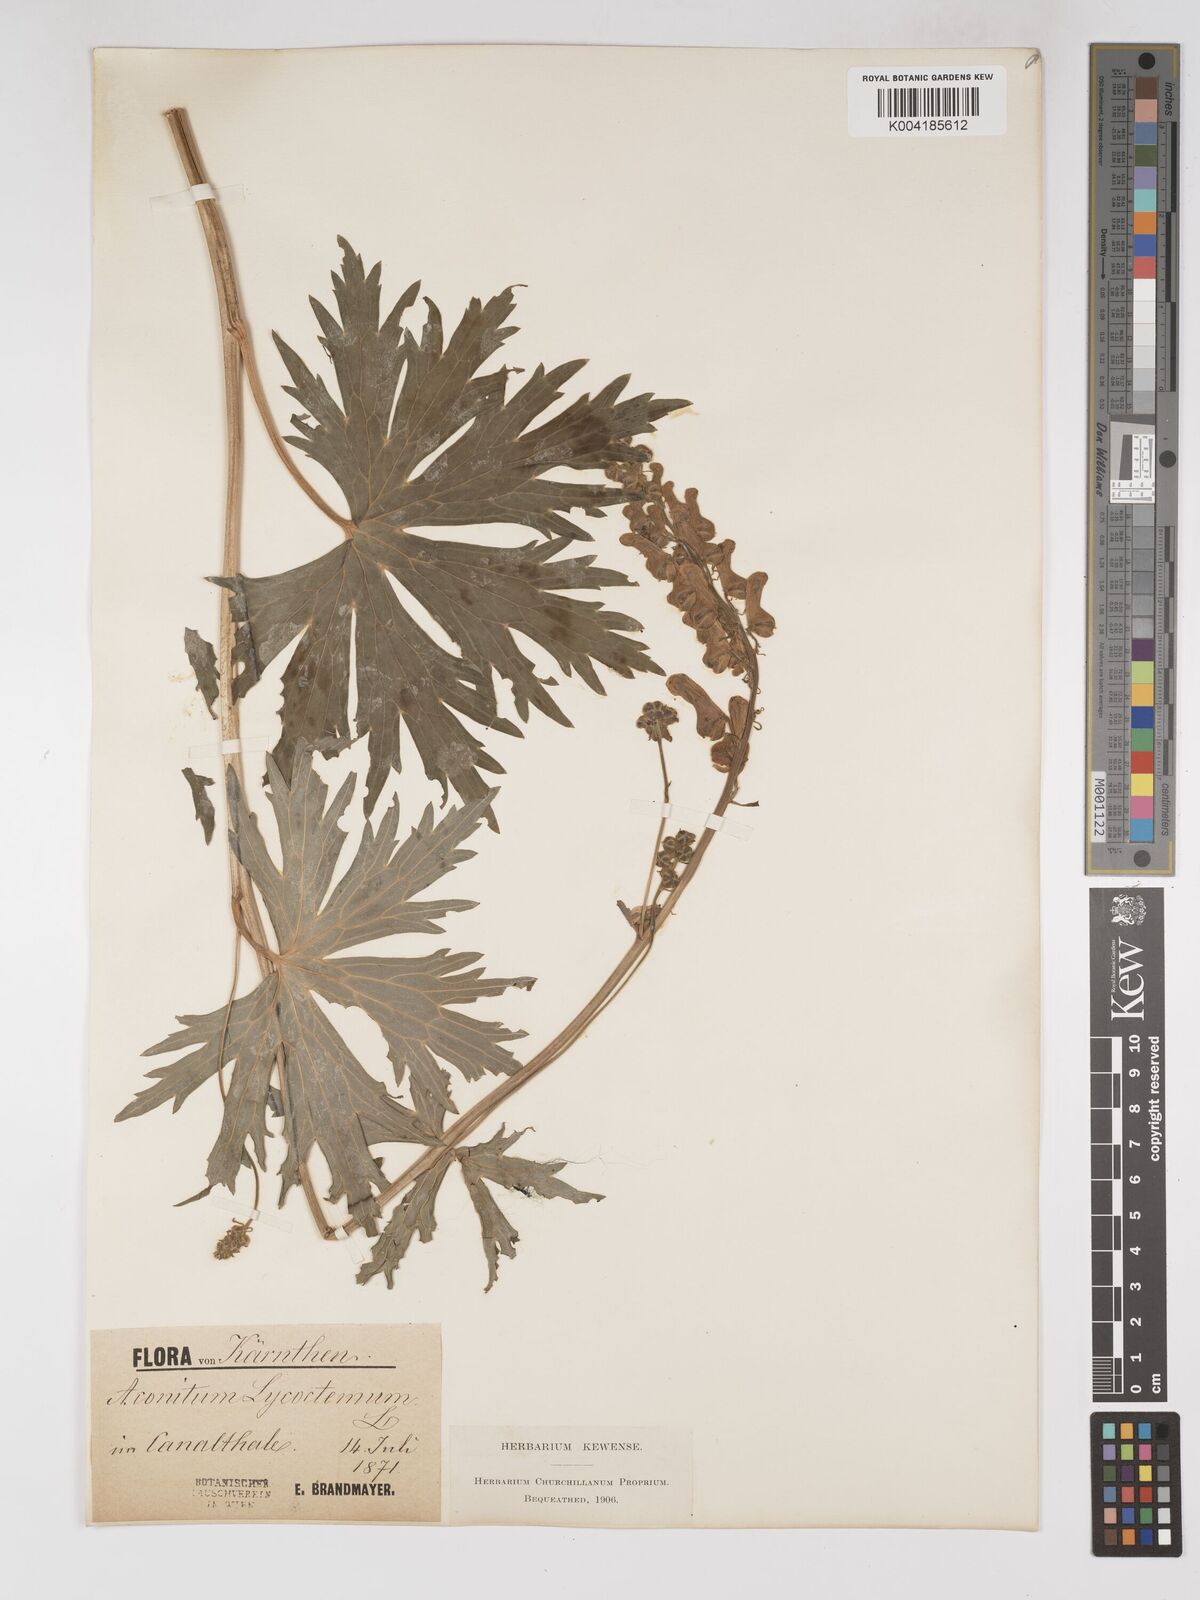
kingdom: Plantae
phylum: Tracheophyta
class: Magnoliopsida
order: Ranunculales
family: Ranunculaceae
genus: Aconitum
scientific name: Aconitum lycoctonum
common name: Wolf's-bane
